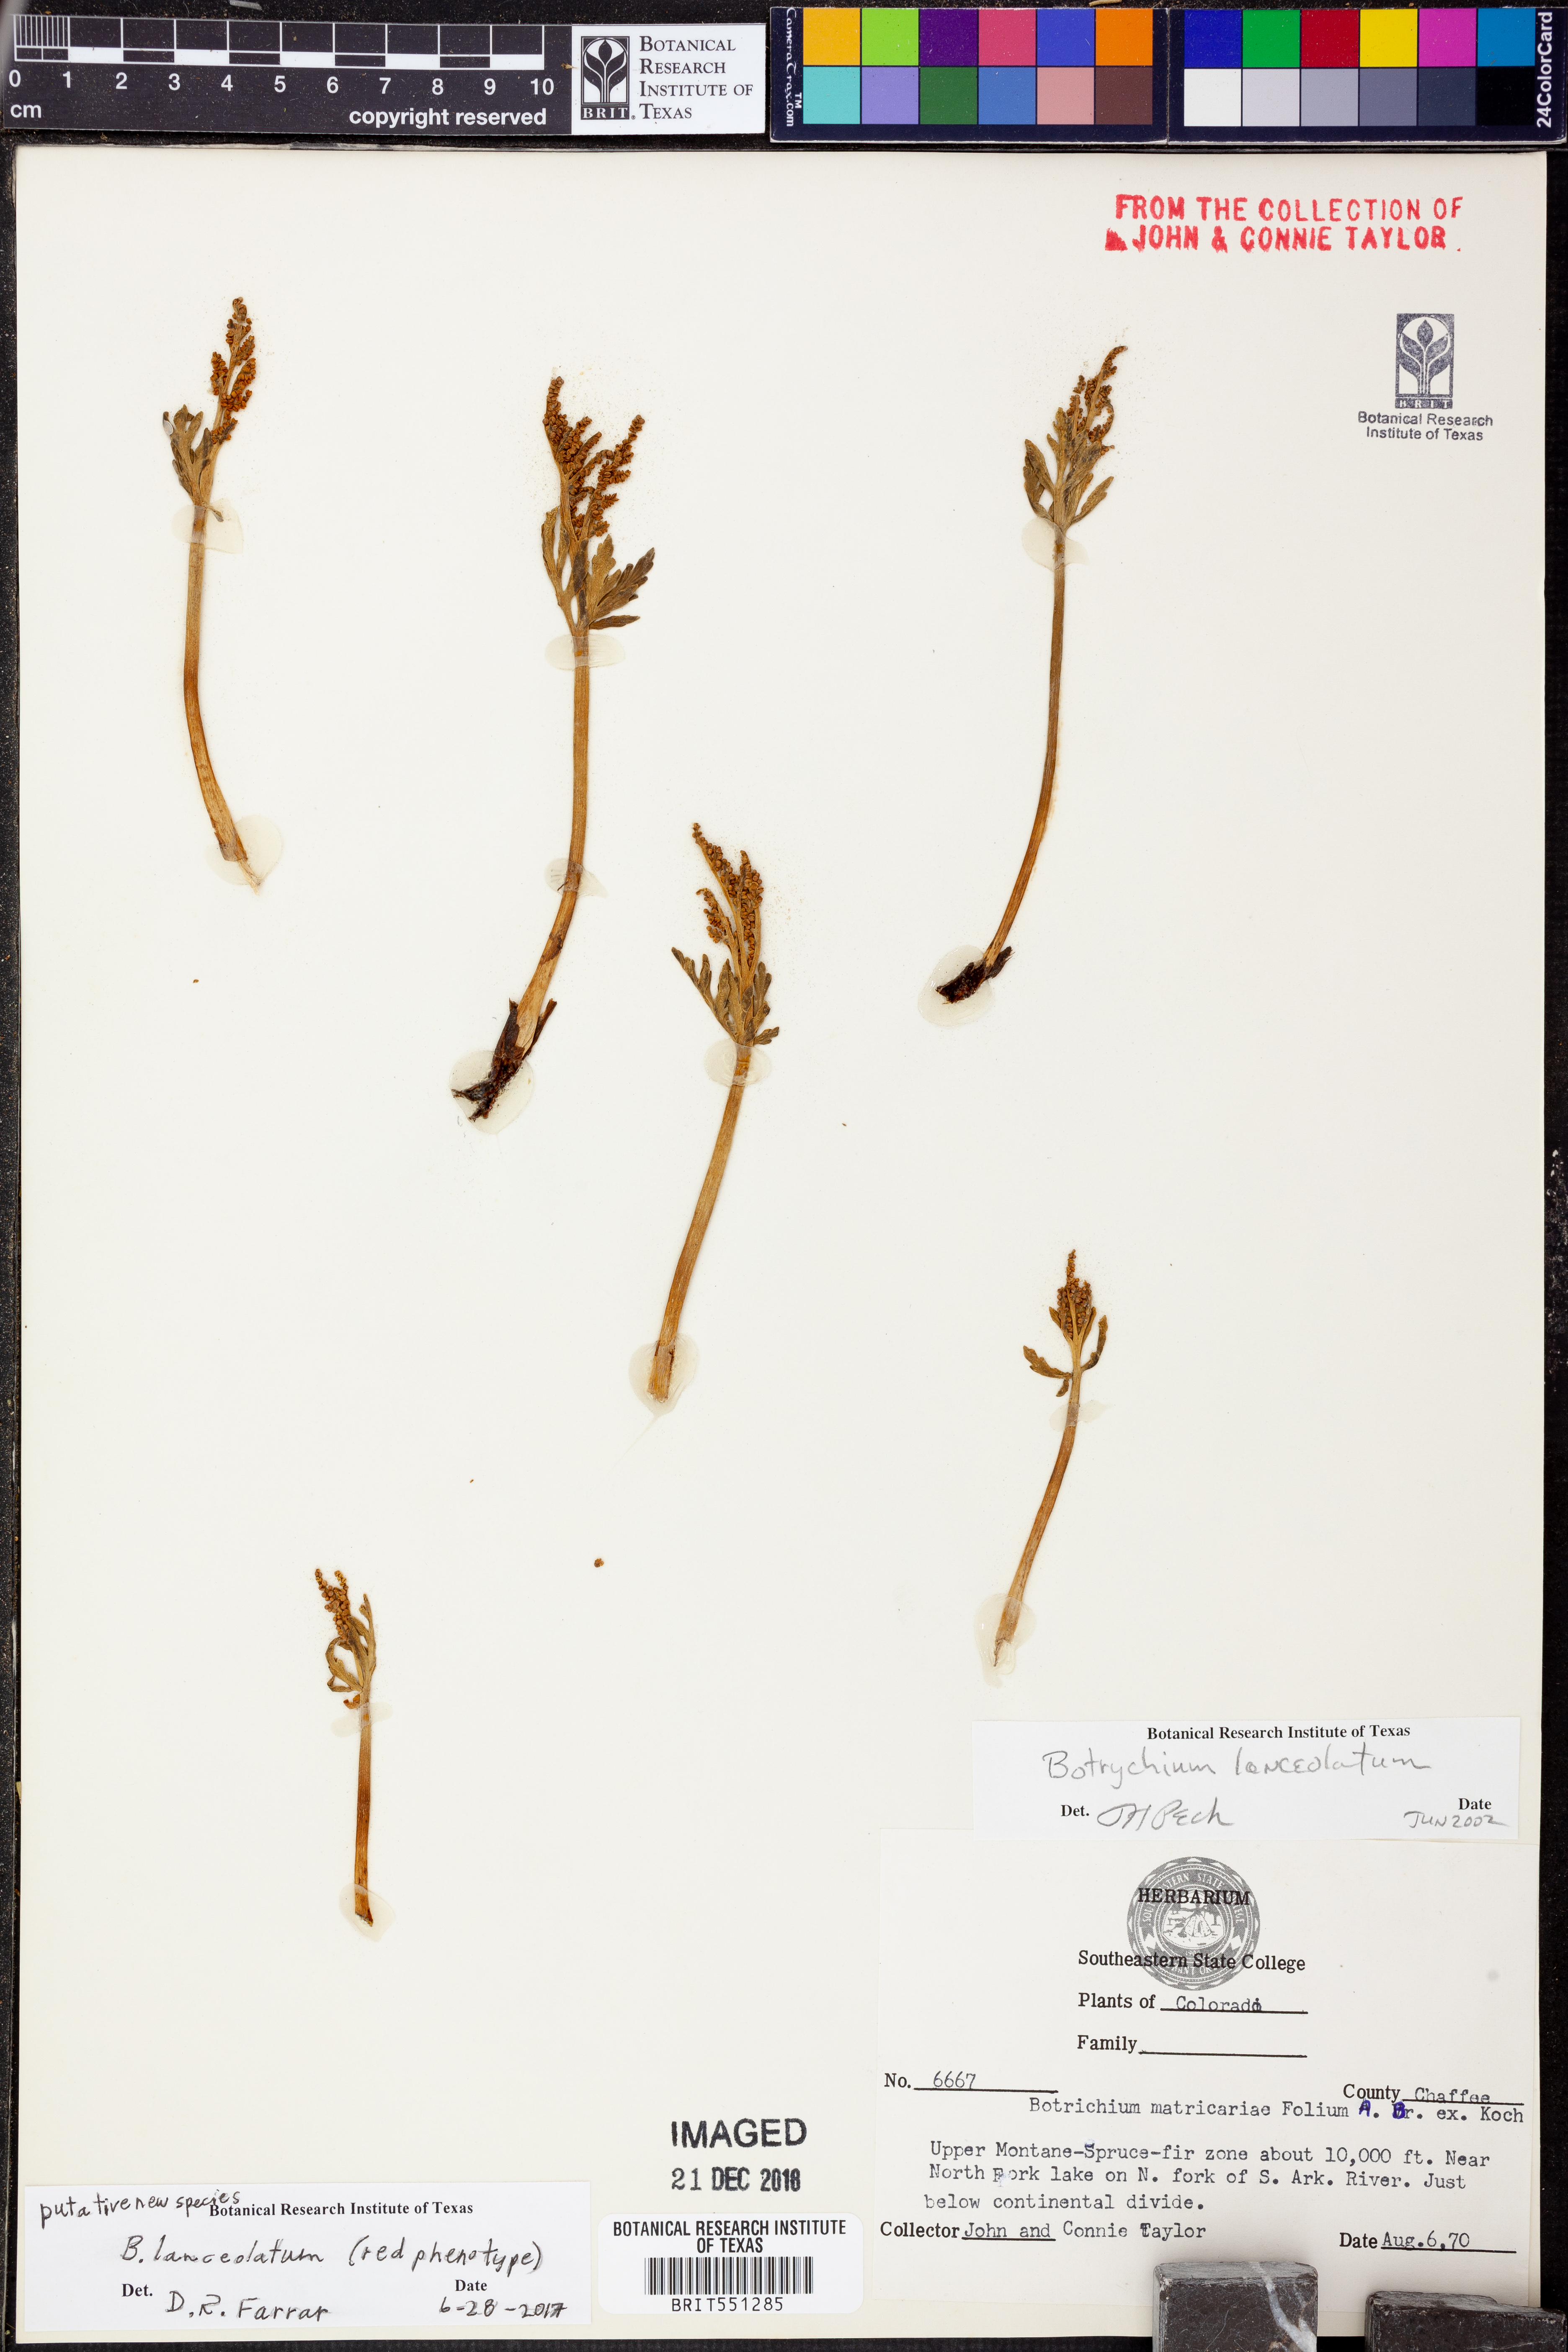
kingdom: Plantae
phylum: Tracheophyta
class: Polypodiopsida
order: Ophioglossales
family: Ophioglossaceae
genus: Botrychium
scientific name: Botrychium lanceolatum
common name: Lance-leaved moonwort
